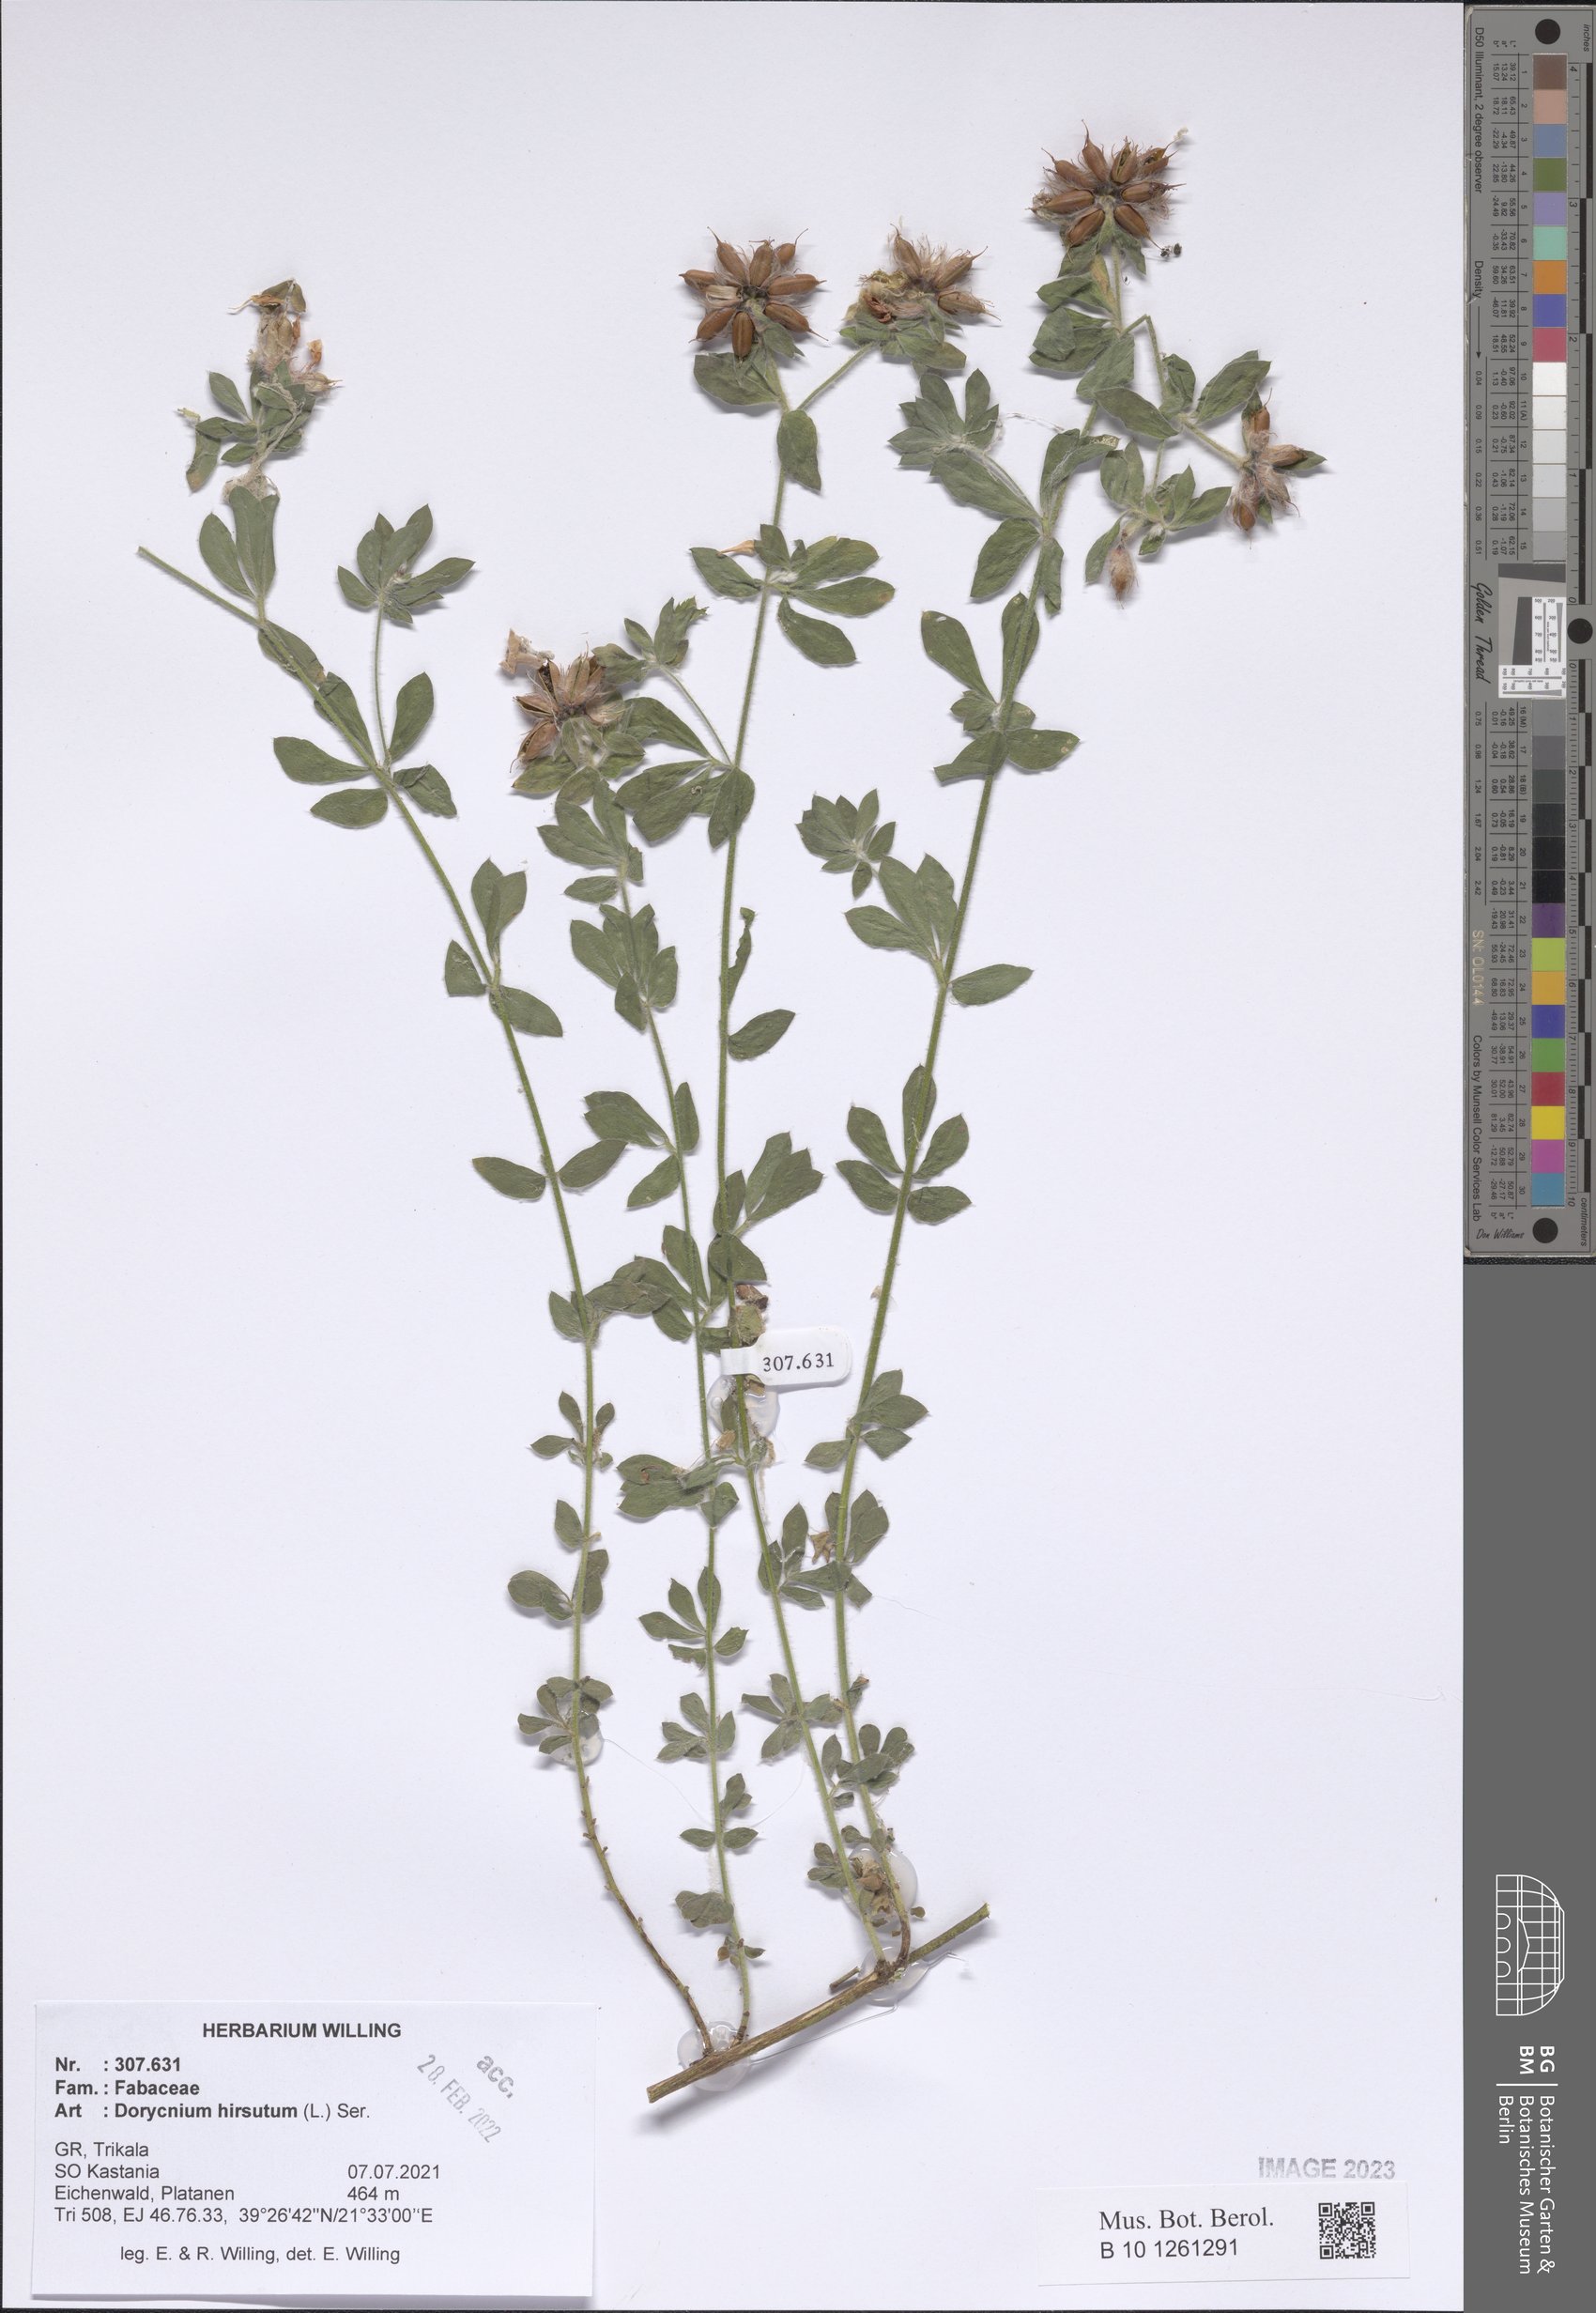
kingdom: Plantae
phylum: Tracheophyta
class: Magnoliopsida
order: Fabales
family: Fabaceae
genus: Lotus
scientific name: Lotus hirsutus
